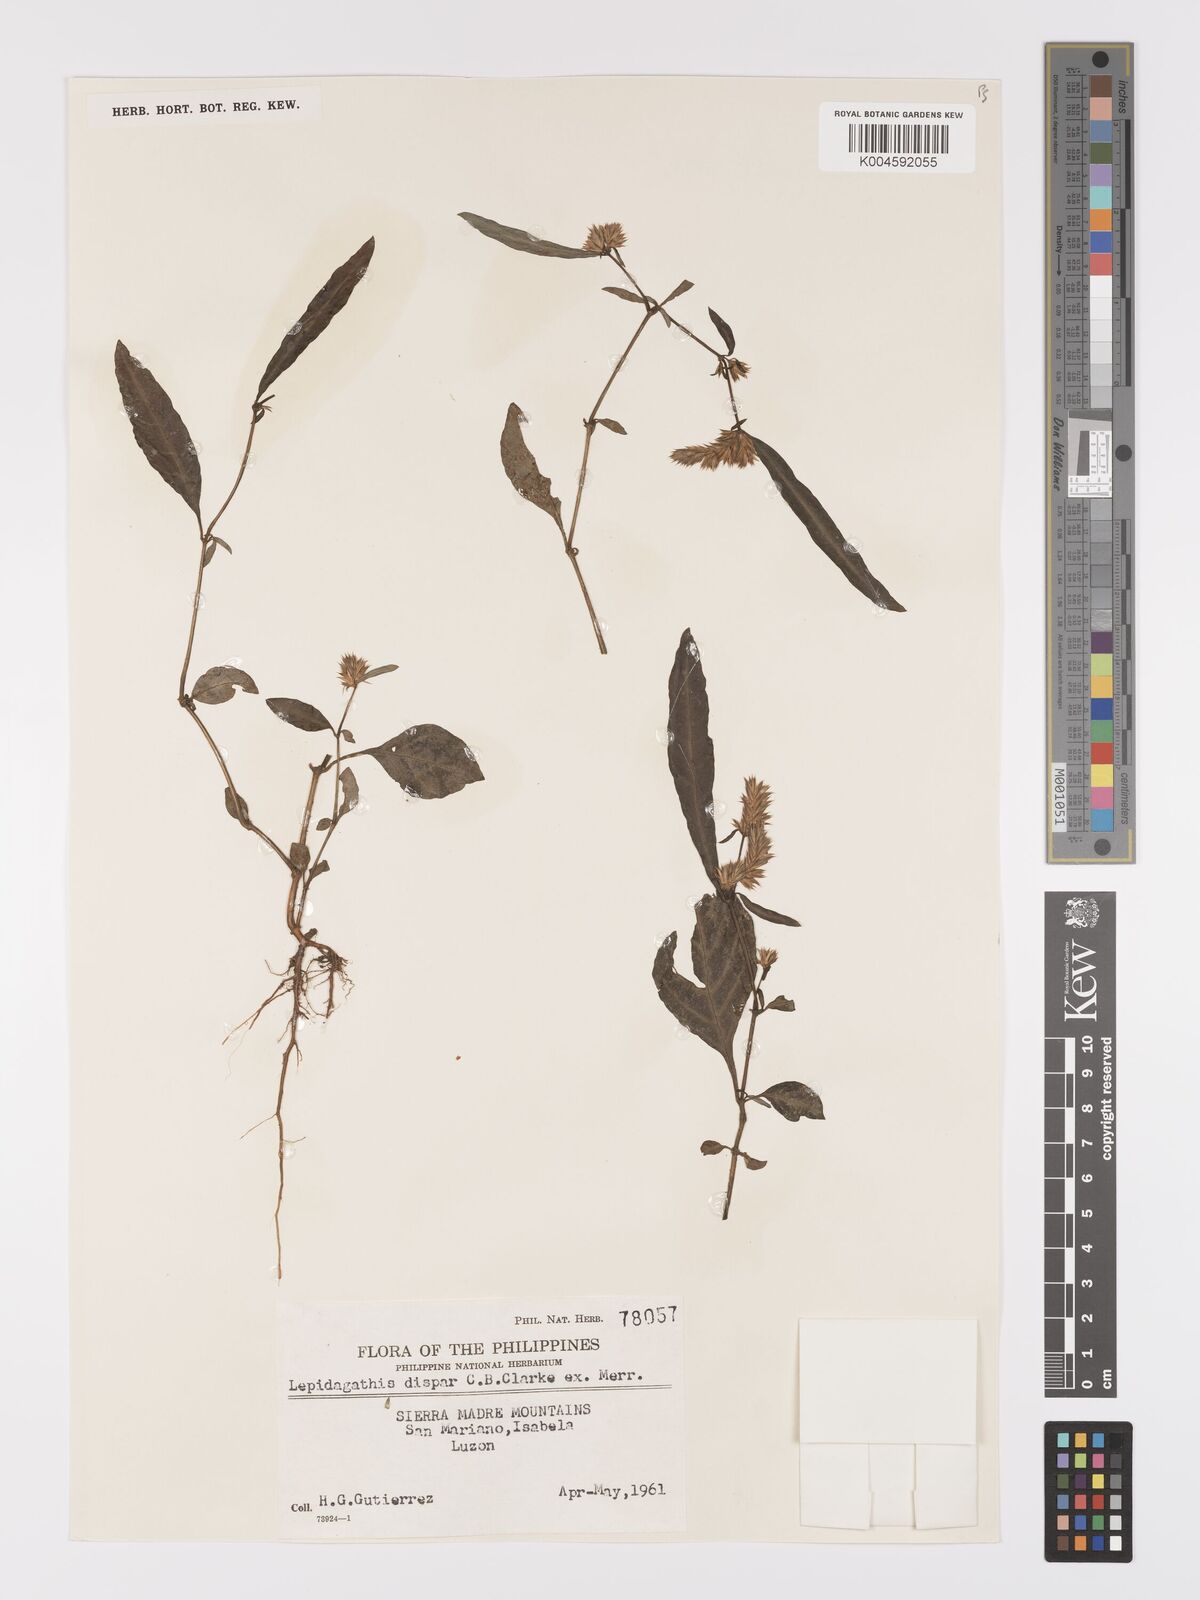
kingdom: Plantae
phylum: Tracheophyta
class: Magnoliopsida
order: Lamiales
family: Acanthaceae
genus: Lepidagathis
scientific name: Lepidagathis dispar
